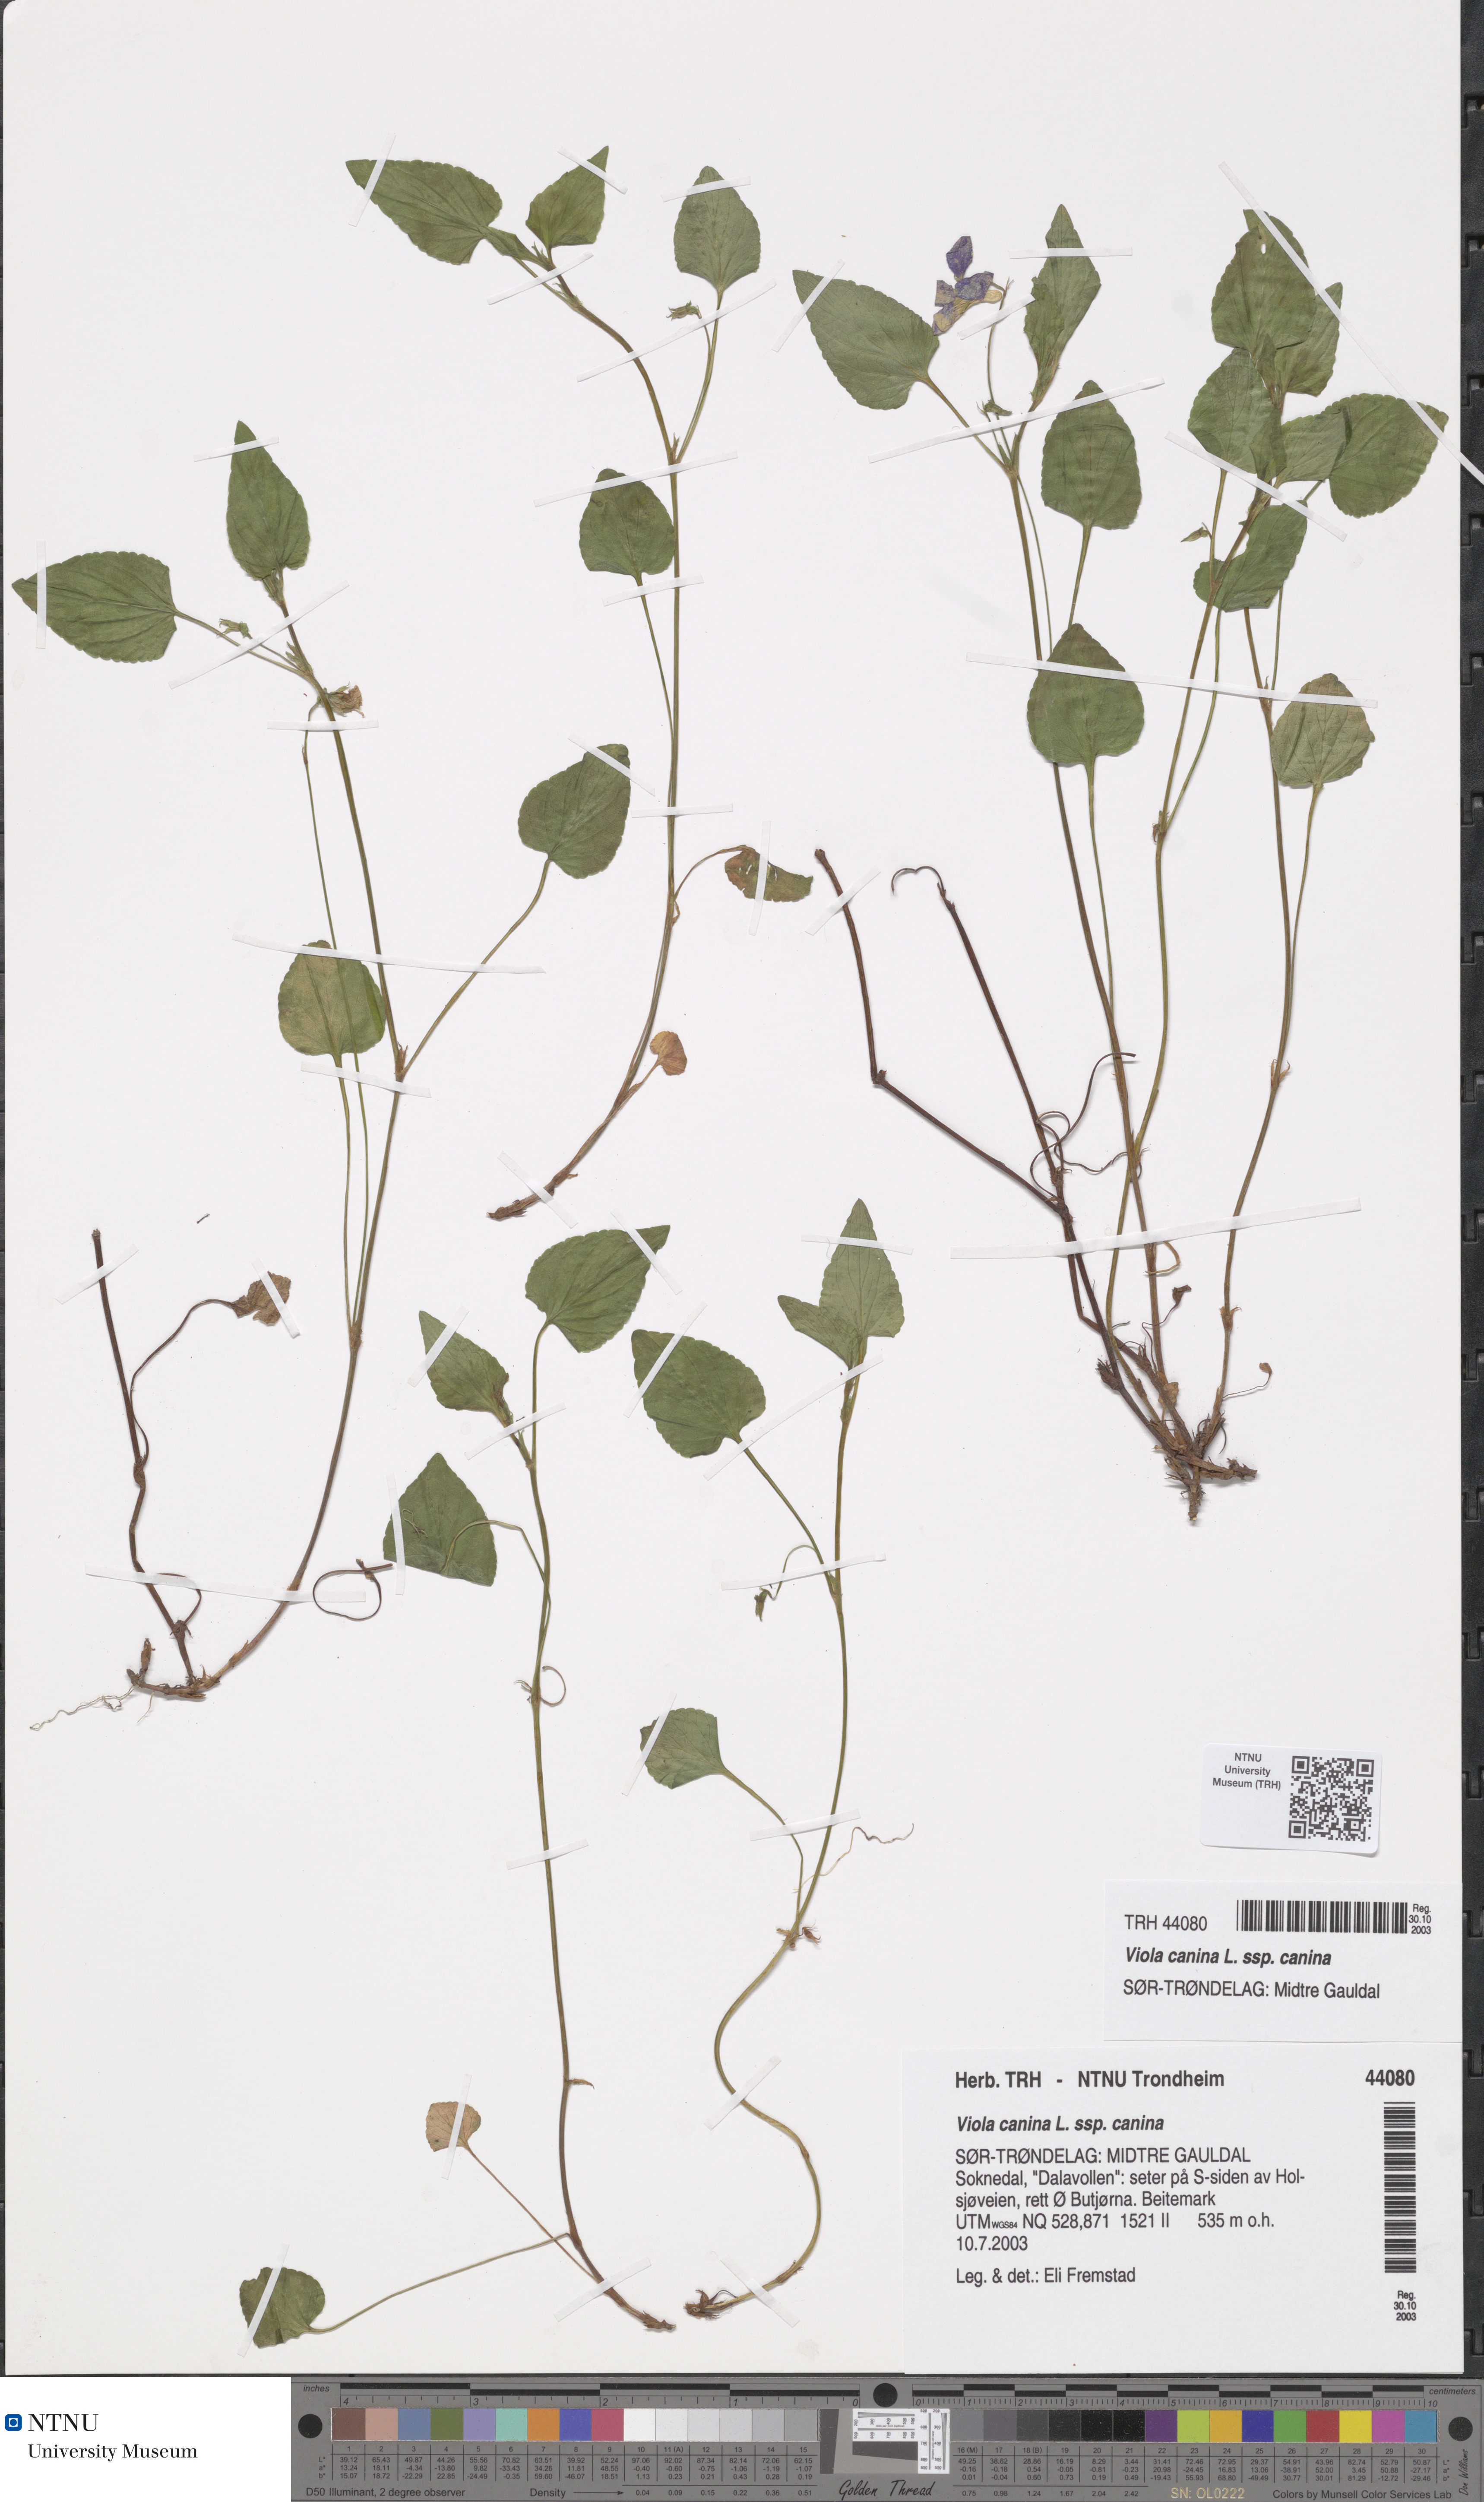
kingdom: Plantae
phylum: Tracheophyta
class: Magnoliopsida
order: Malpighiales
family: Violaceae
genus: Viola
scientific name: Viola canina
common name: Heath dog-violet
